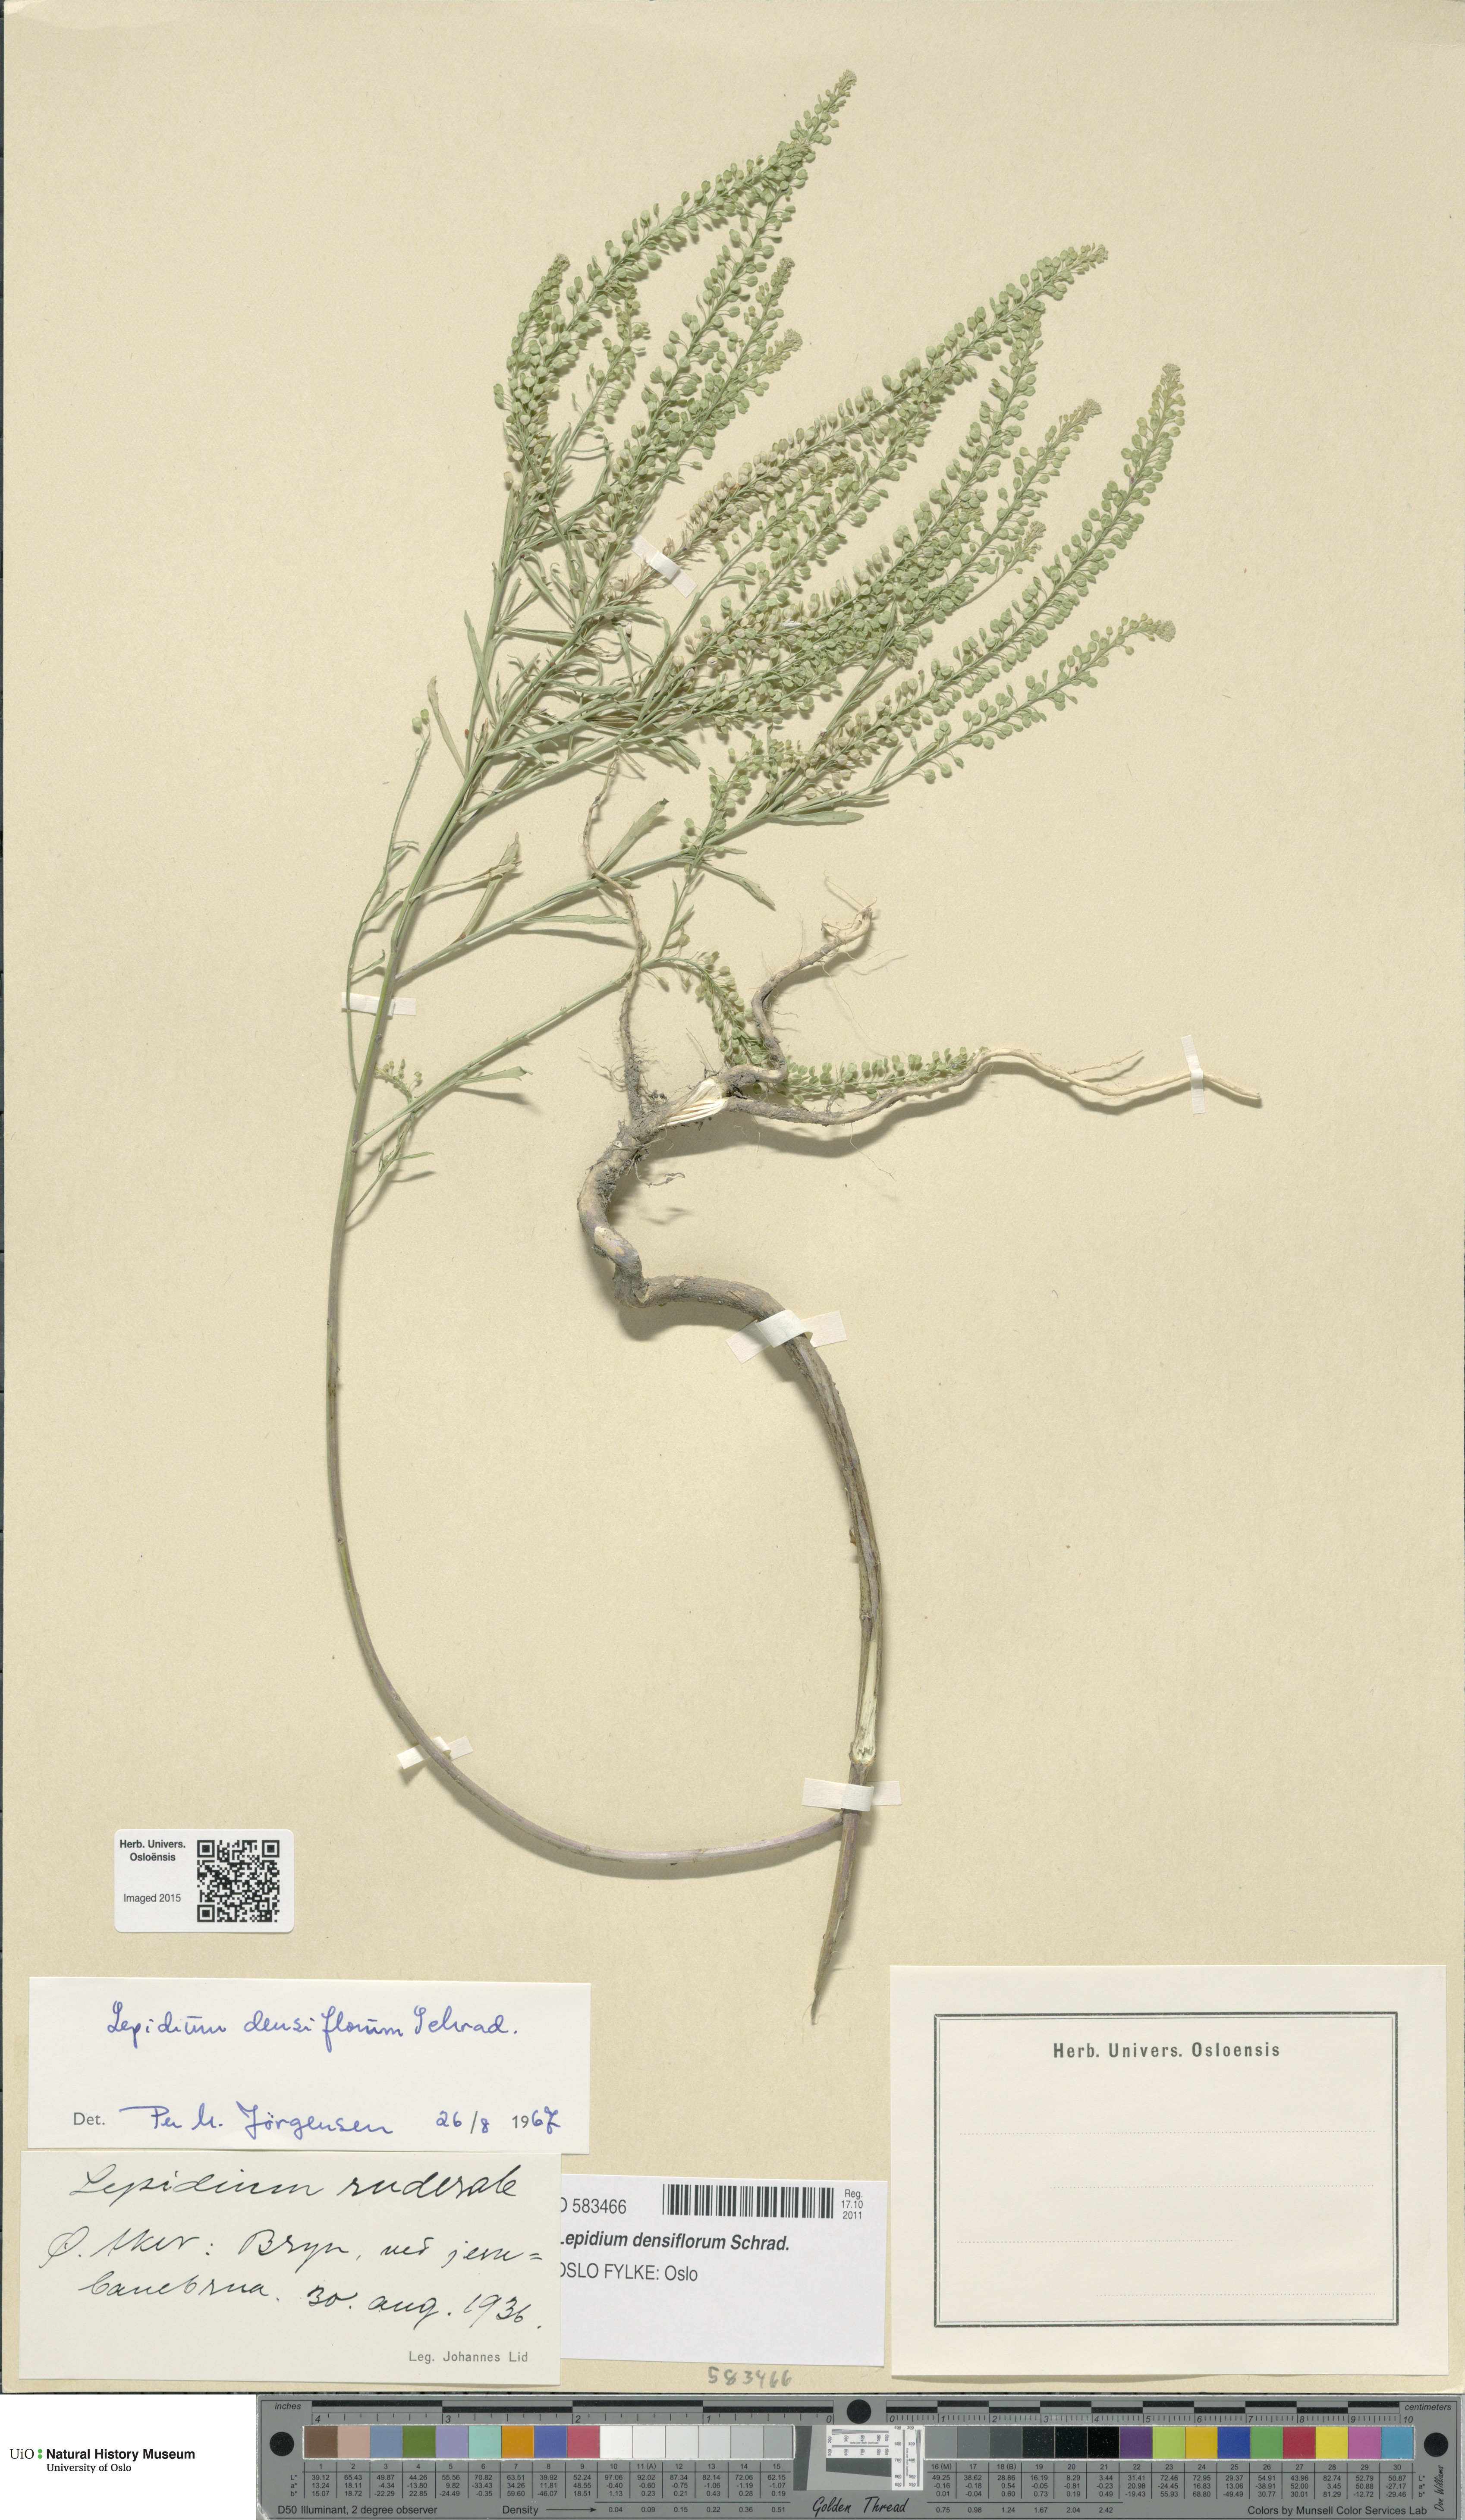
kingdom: Plantae
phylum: Tracheophyta
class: Magnoliopsida
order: Brassicales
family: Brassicaceae
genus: Lepidium
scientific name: Lepidium densiflorum
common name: Miner's pepperwort
